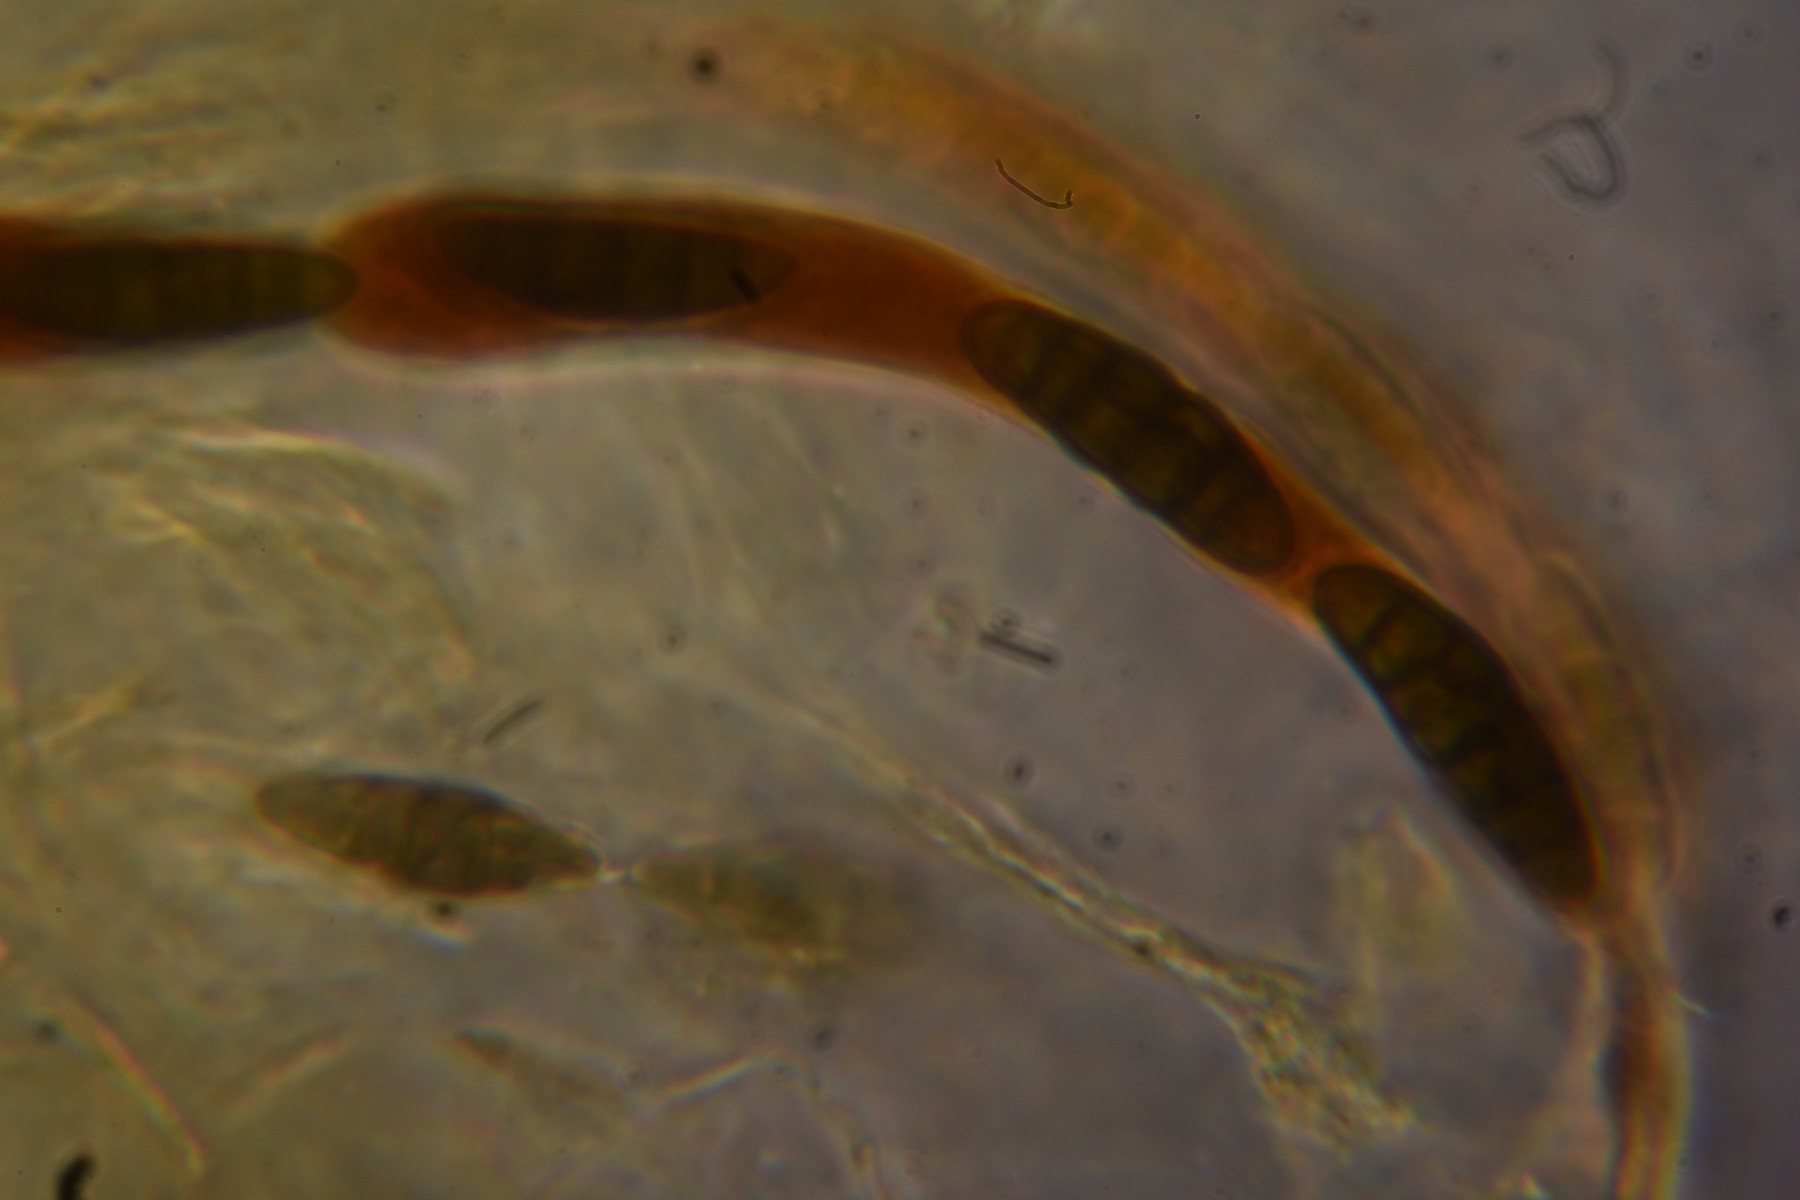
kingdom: Fungi
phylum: Ascomycota
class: Dothideomycetes
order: Pleosporales
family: Lophiostomataceae
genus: Lophiostoma
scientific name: Lophiostoma compressum
